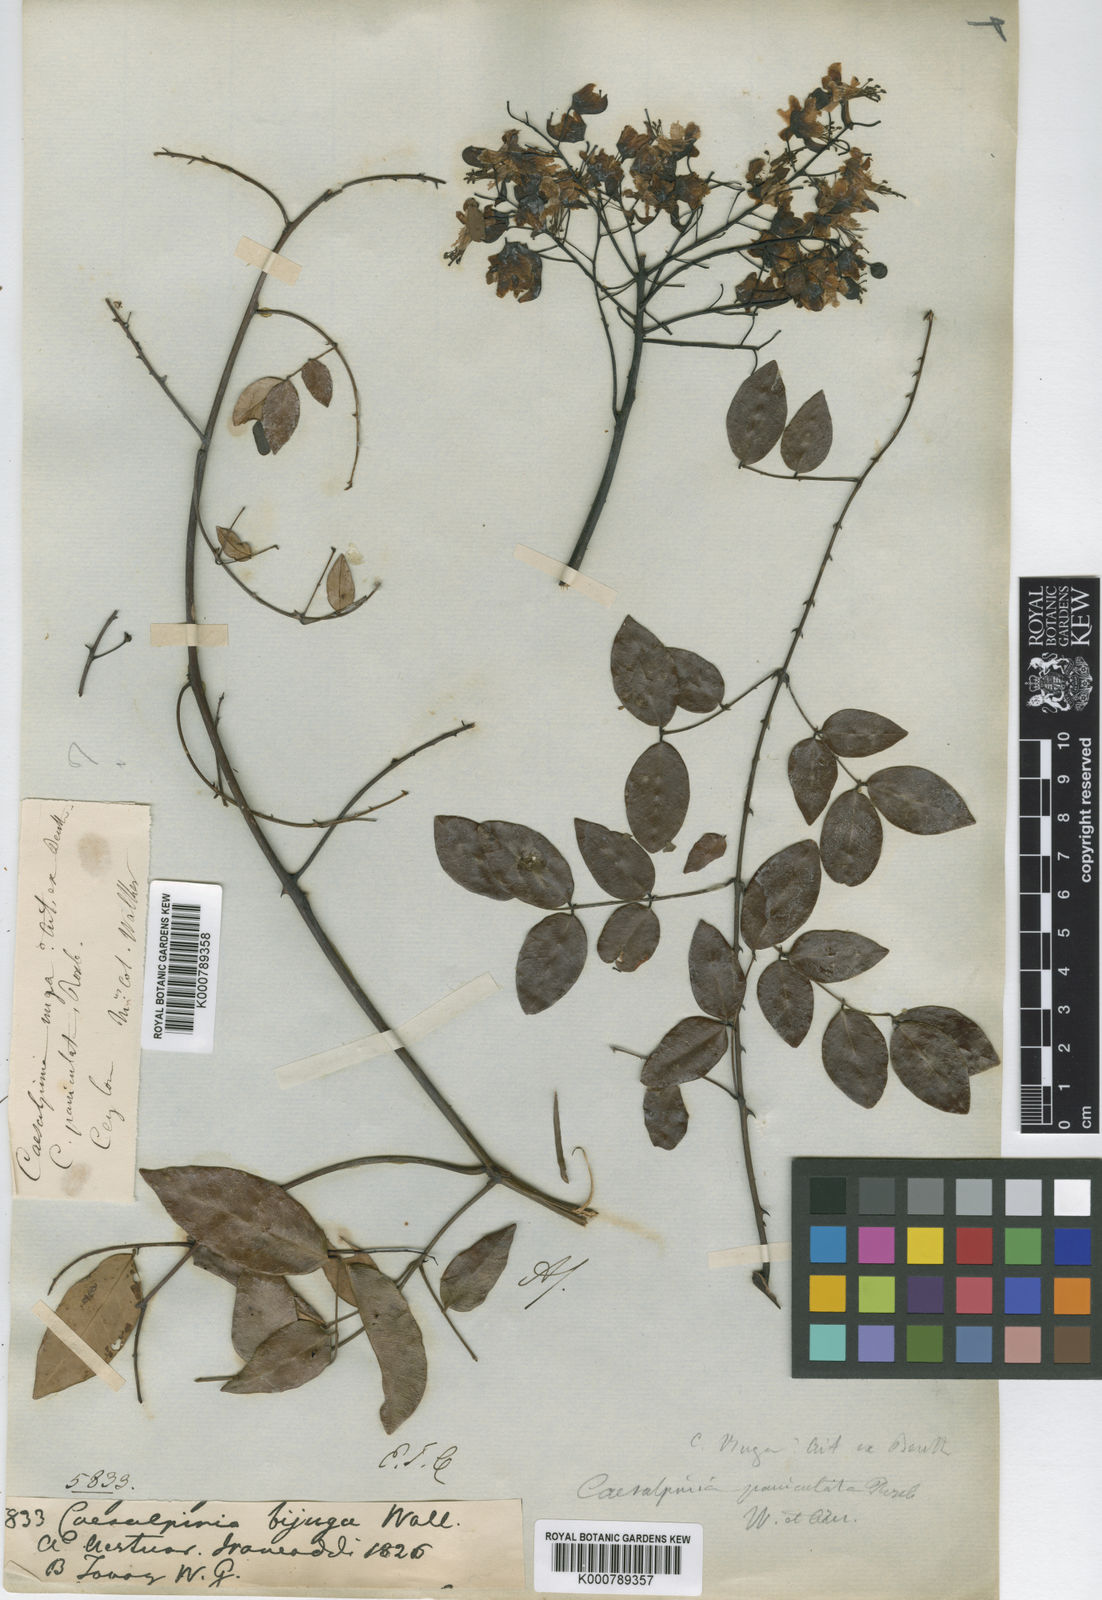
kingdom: Plantae
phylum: Tracheophyta
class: Magnoliopsida
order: Fabales
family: Fabaceae
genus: Caesalpinia
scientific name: Caesalpinia Ticanto crista
